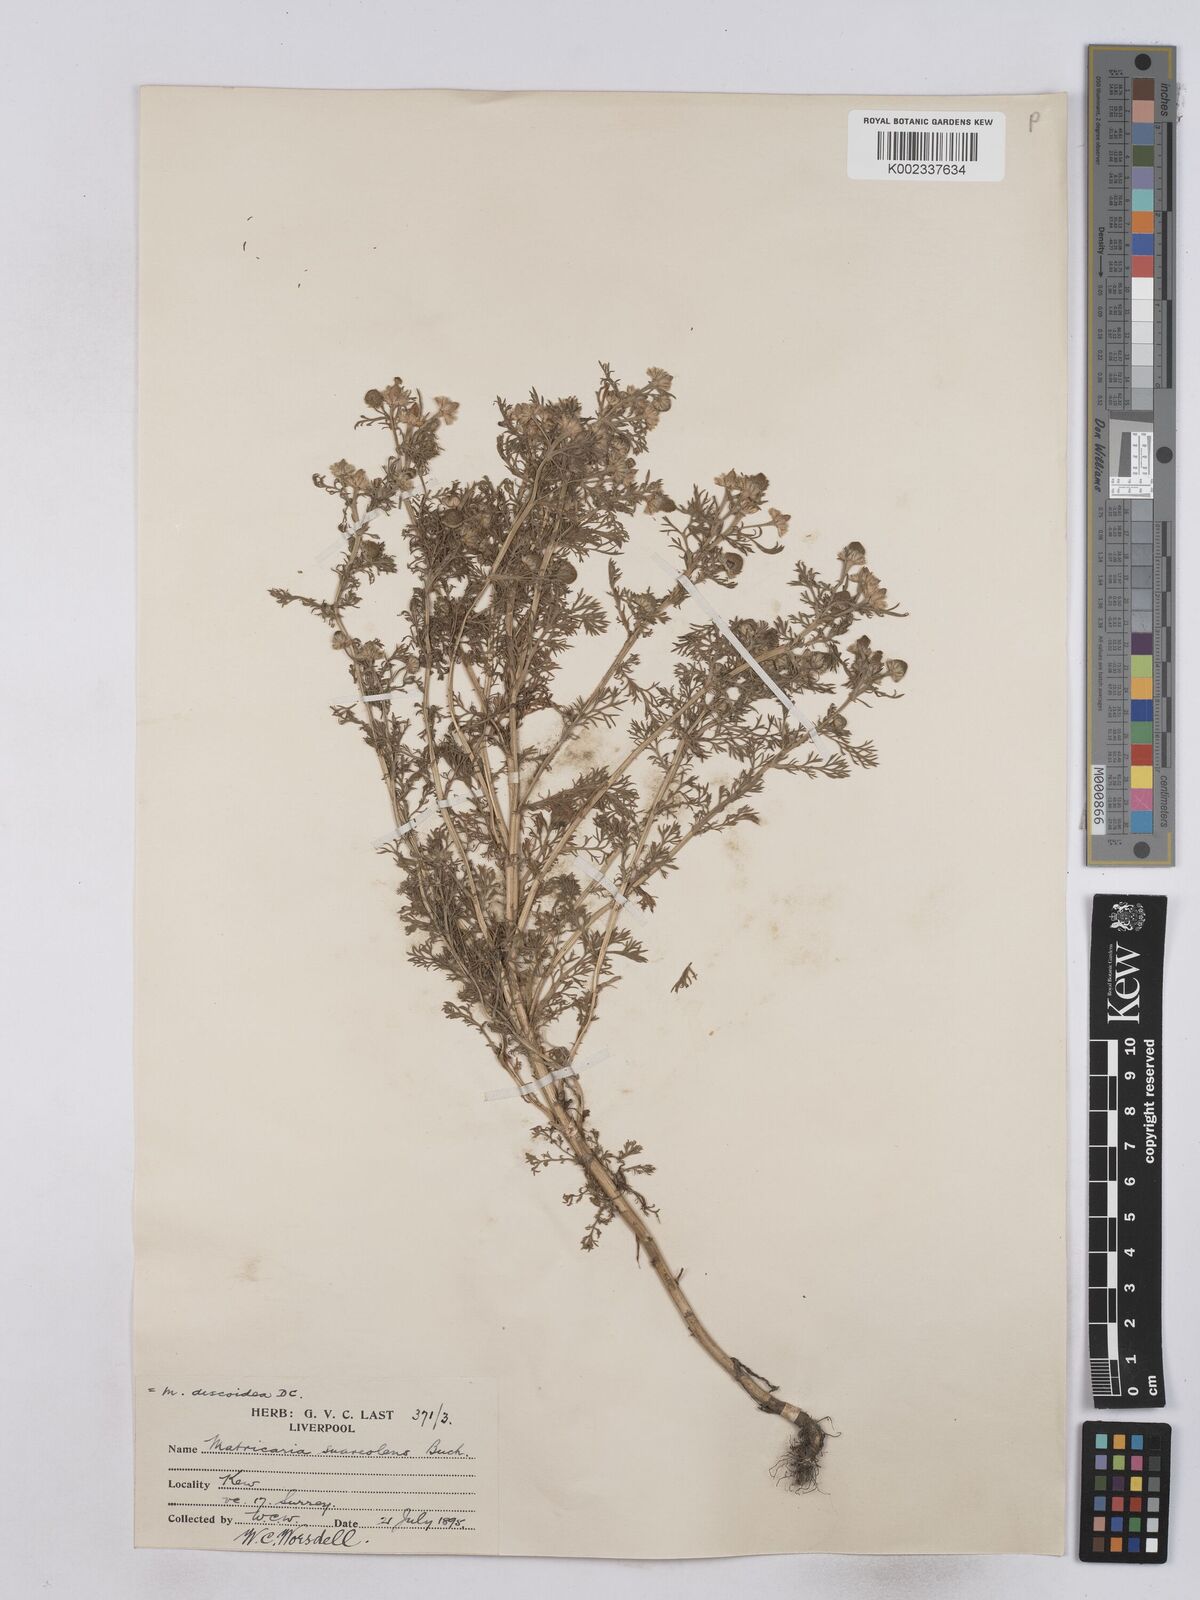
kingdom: Plantae
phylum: Tracheophyta
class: Magnoliopsida
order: Asterales
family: Asteraceae
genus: Matricaria
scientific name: Matricaria discoidea
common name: Disc mayweed
